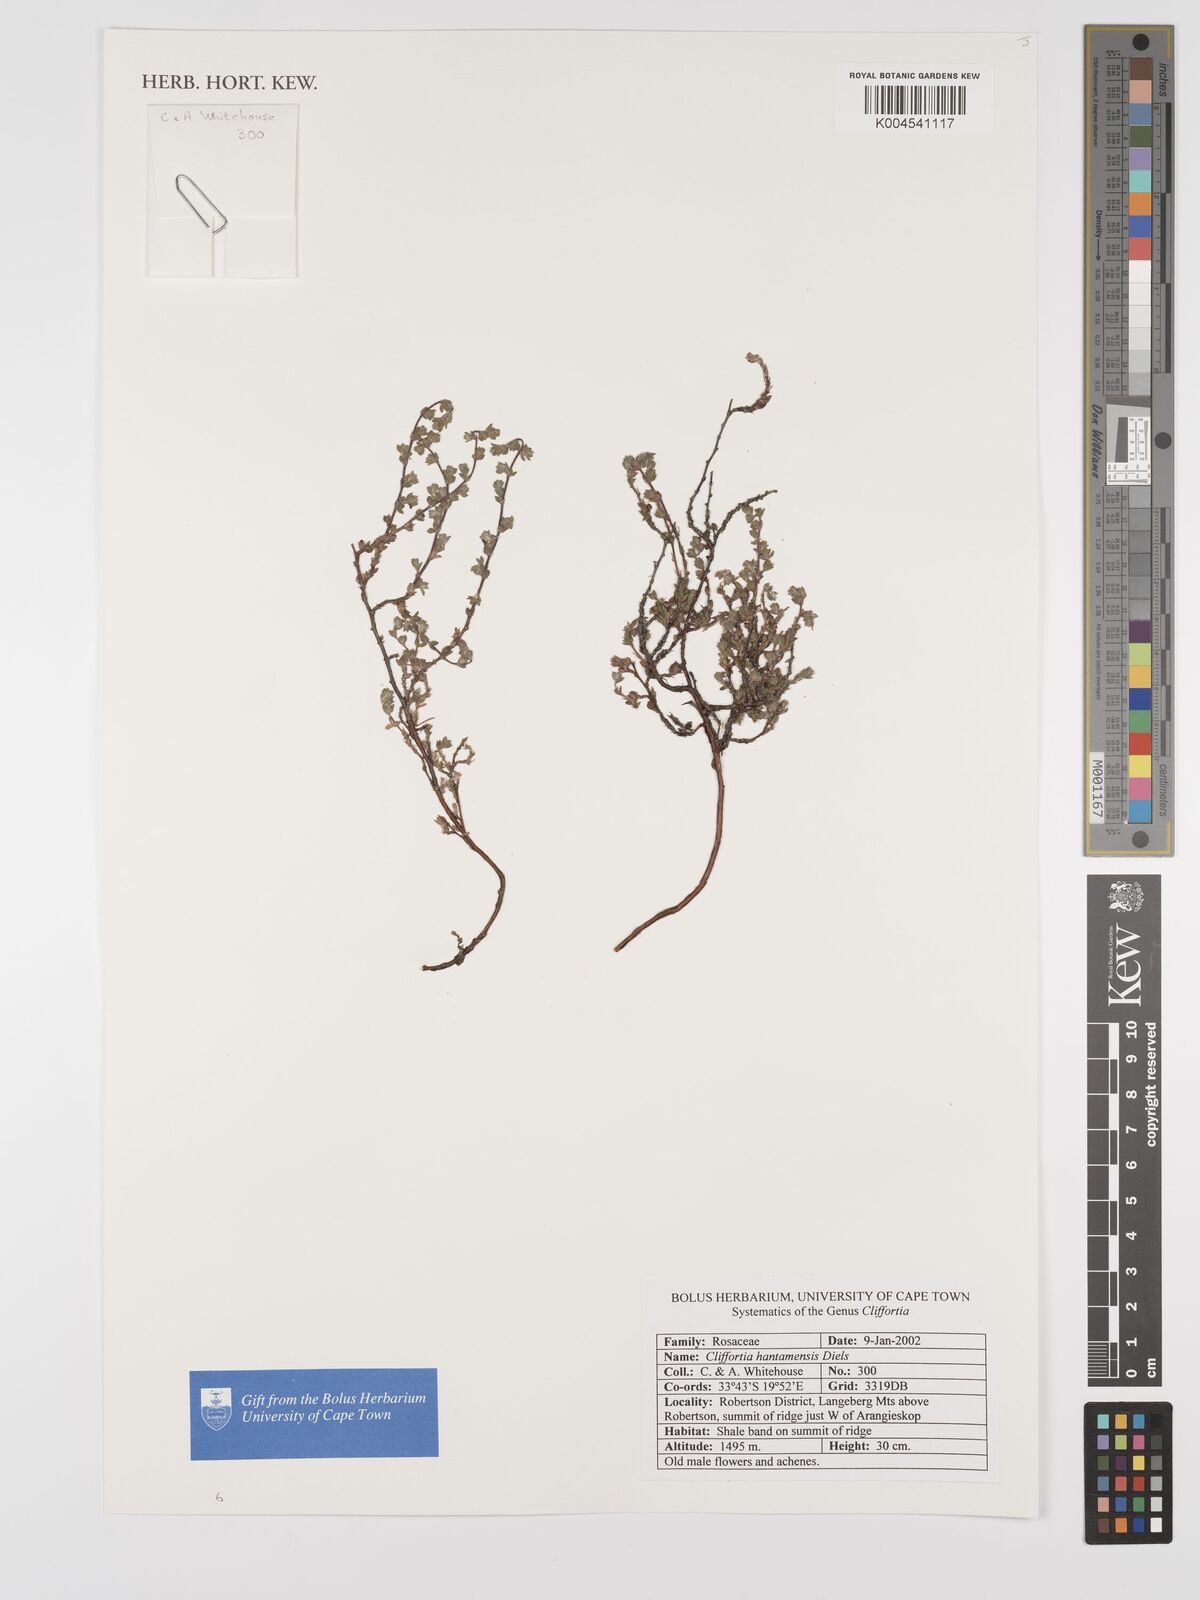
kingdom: Plantae
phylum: Tracheophyta
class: Magnoliopsida
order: Rosales
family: Rosaceae
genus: Cliffortia
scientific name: Cliffortia hantamensis
